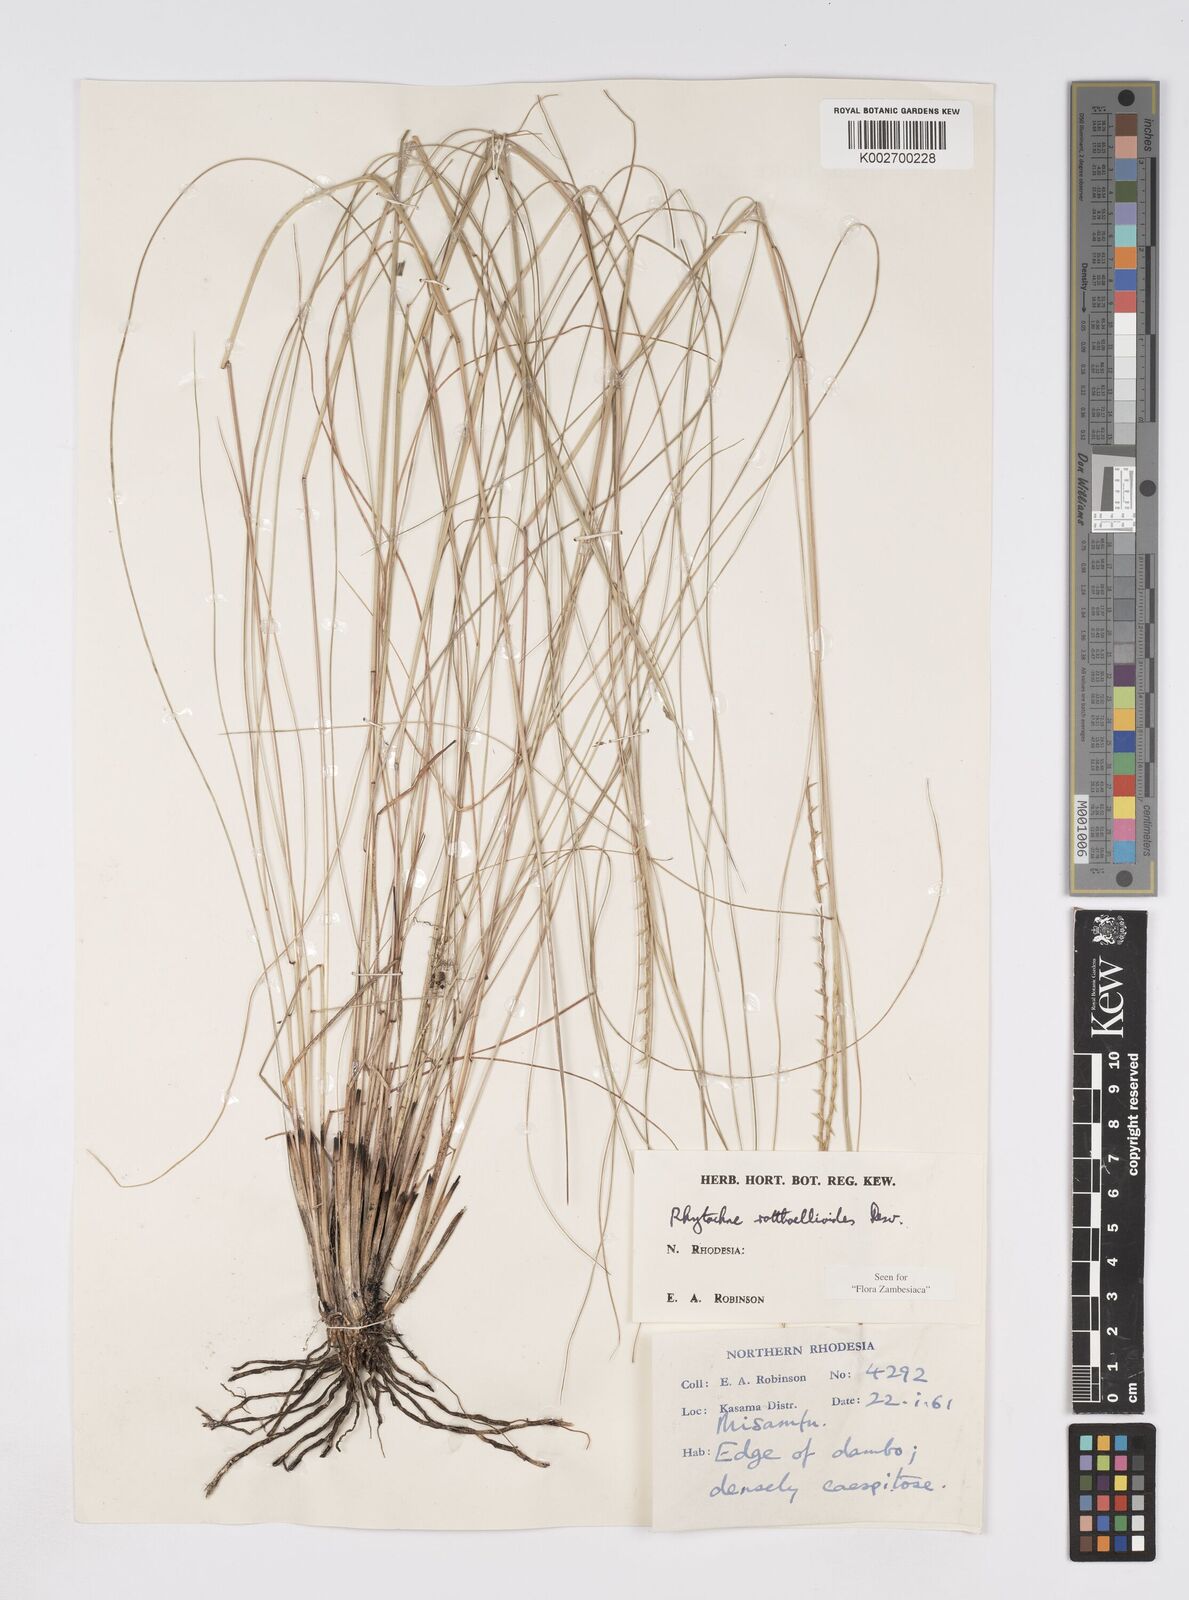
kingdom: Plantae
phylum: Tracheophyta
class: Liliopsida
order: Poales
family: Poaceae
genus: Rhytachne
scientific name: Rhytachne rottboellioides
